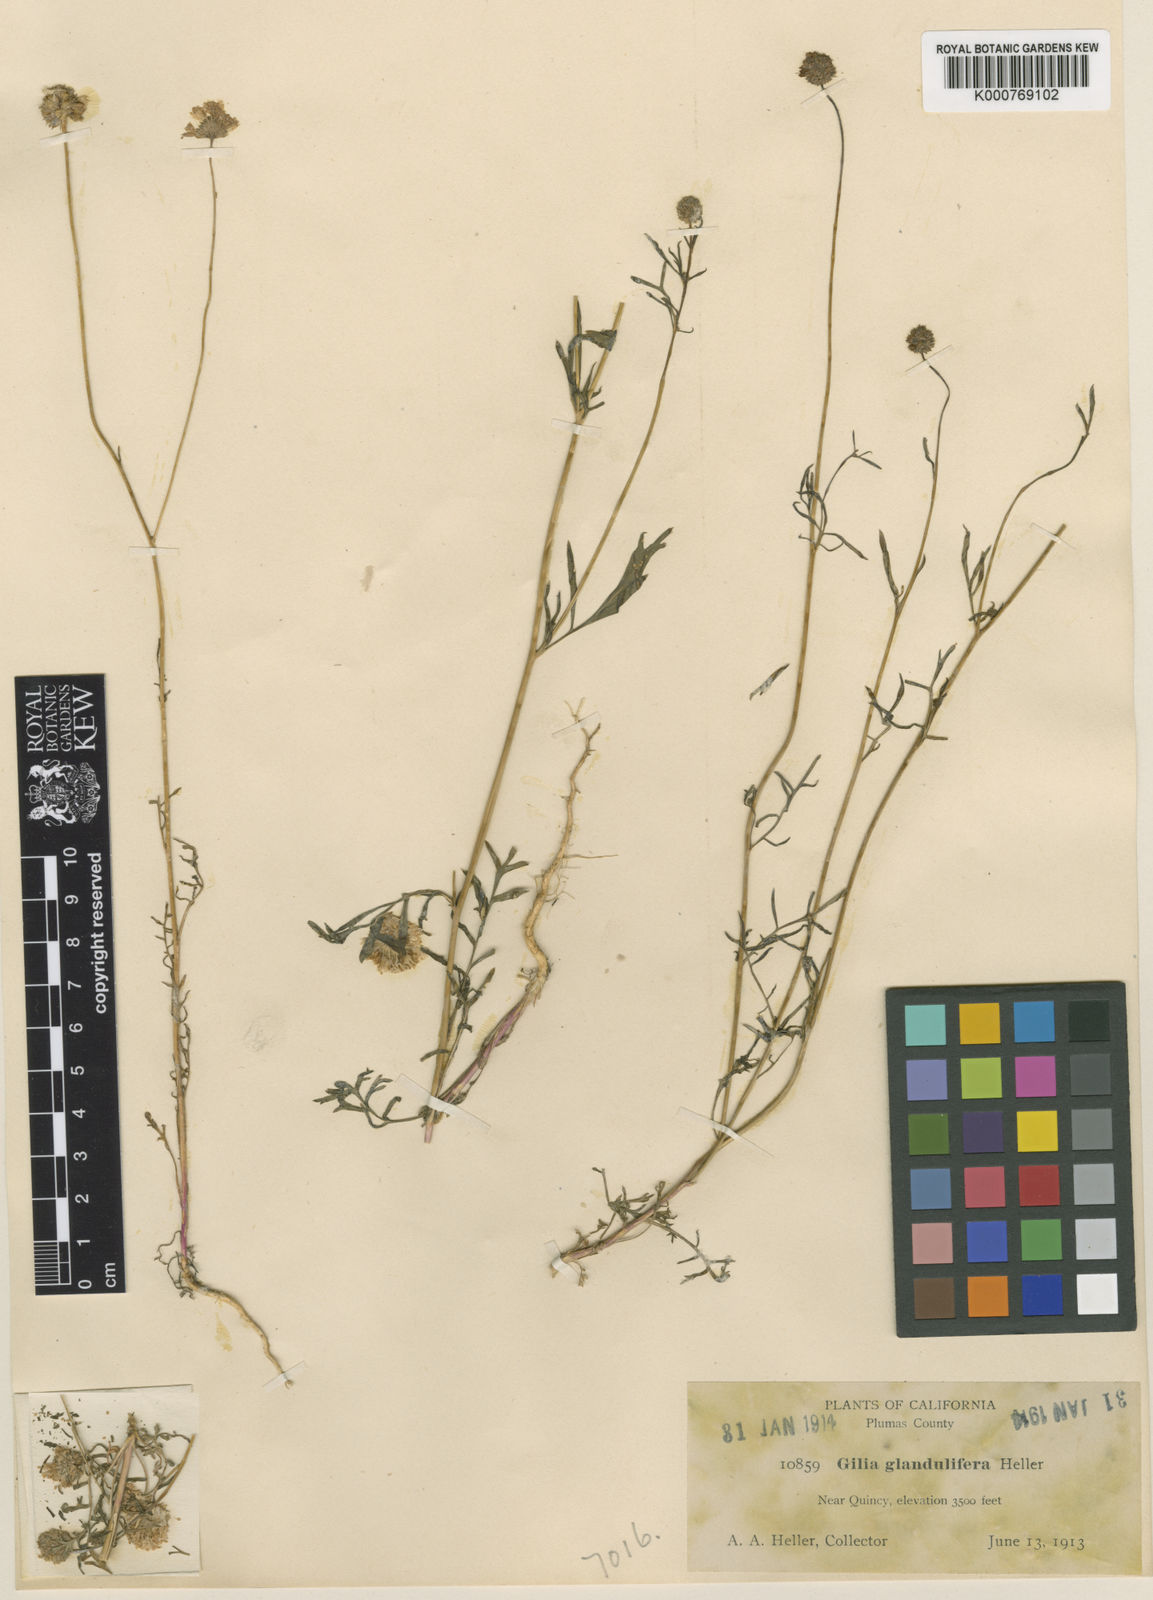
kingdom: Plantae
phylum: Tracheophyta
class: Magnoliopsida
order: Ericales
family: Polemoniaceae
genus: Gilia
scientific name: Gilia capitata
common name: Bluehead gilia
